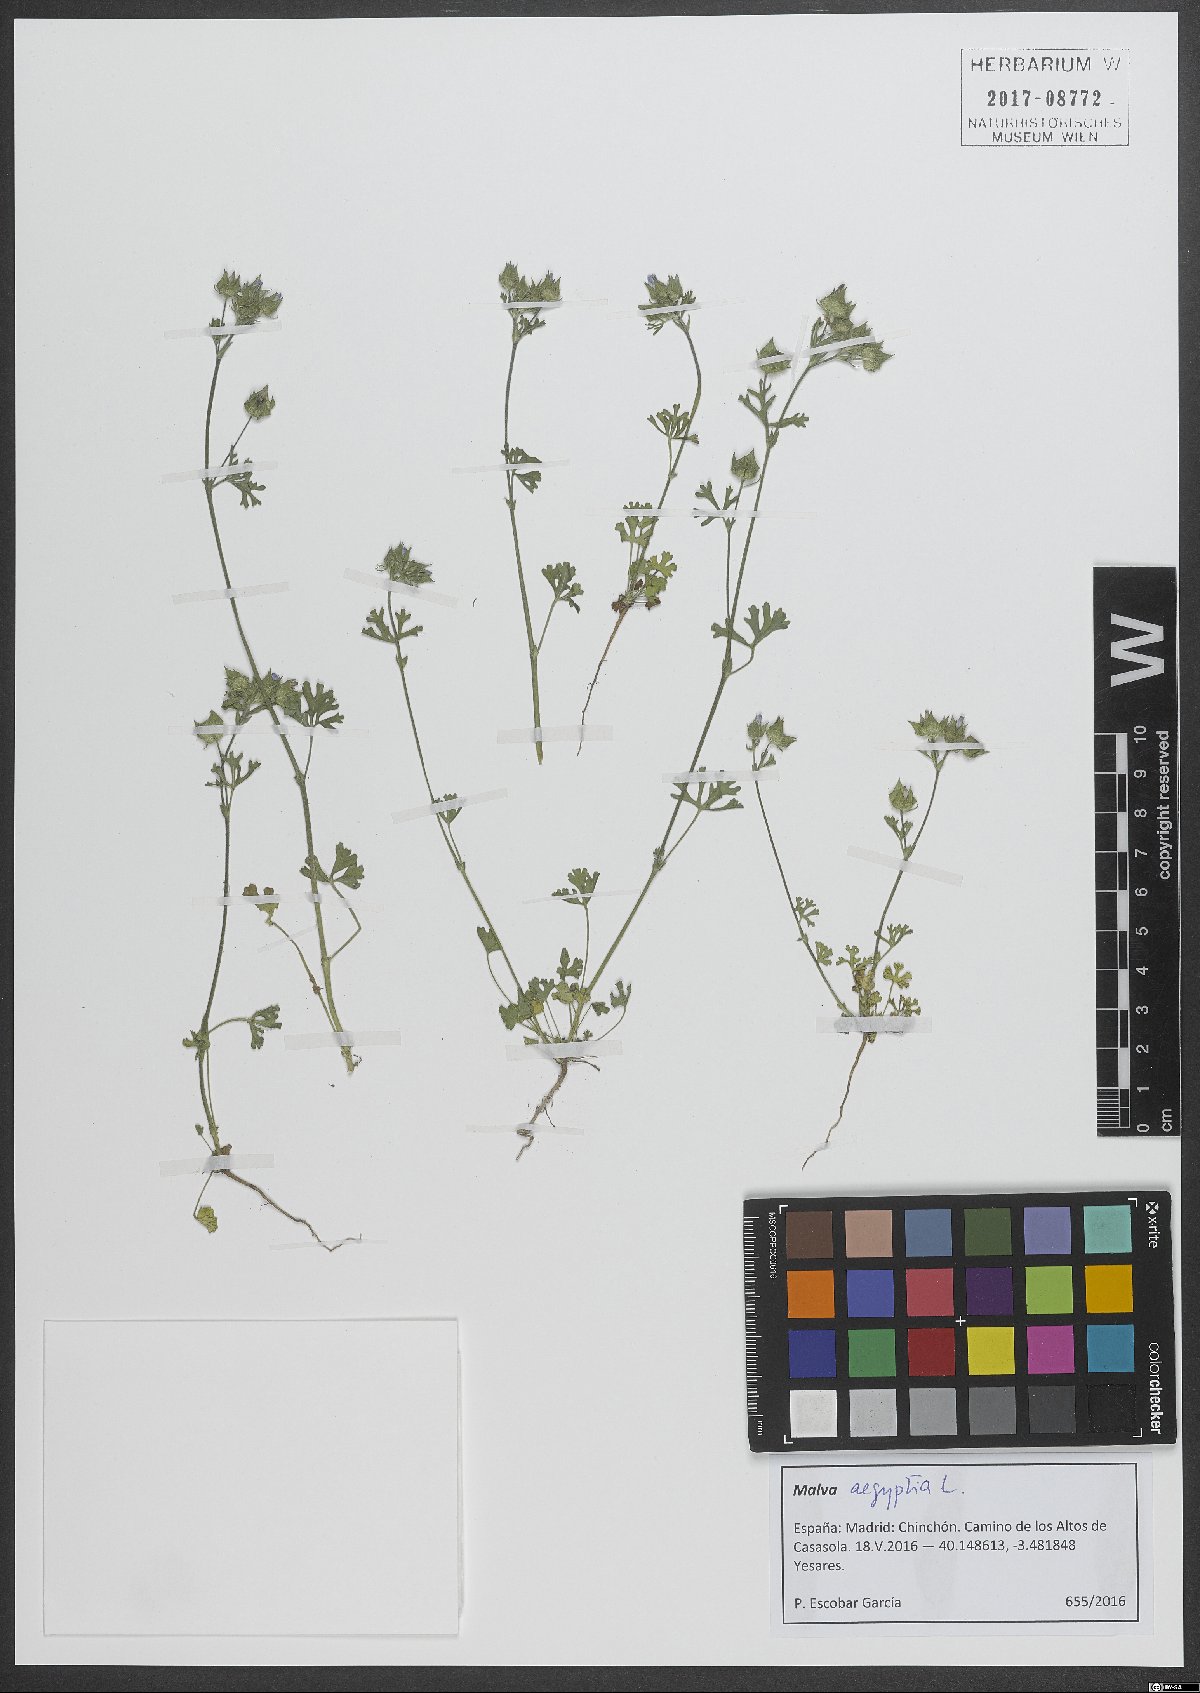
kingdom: Plantae
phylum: Tracheophyta
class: Magnoliopsida
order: Malvales
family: Malvaceae
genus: Malva
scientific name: Malva aegyptia
